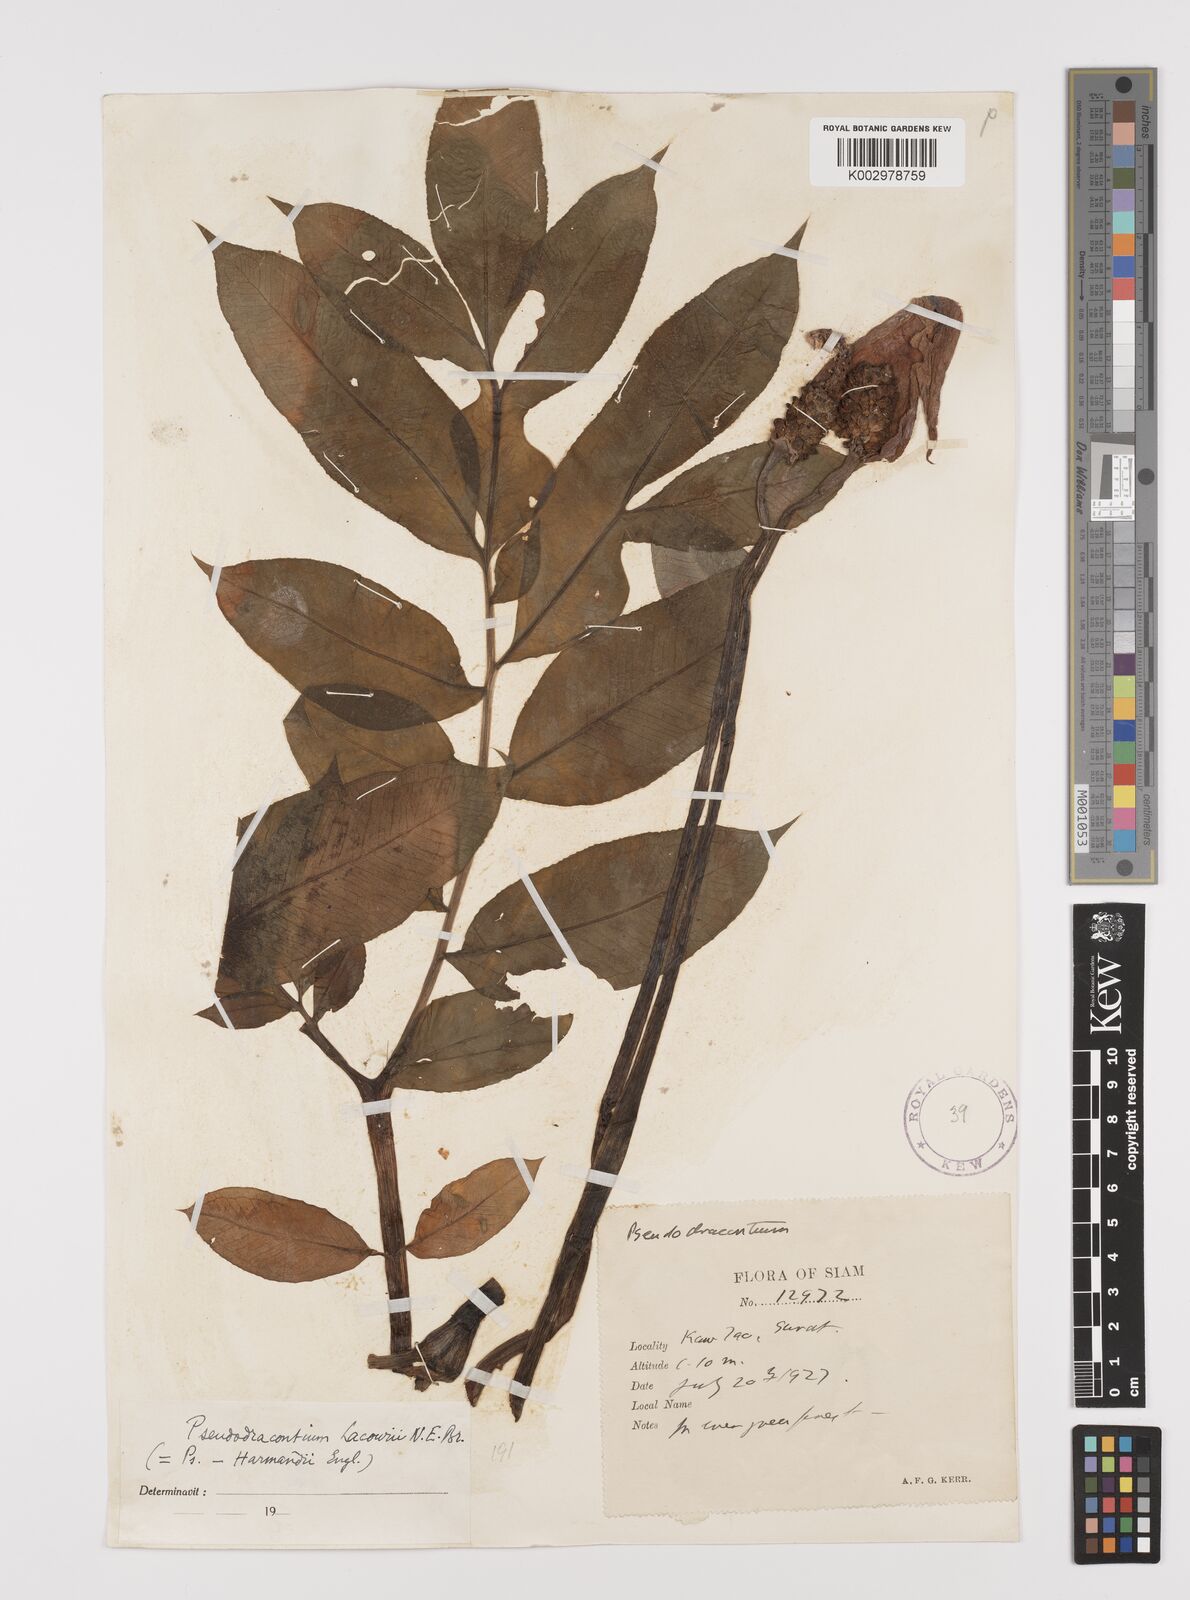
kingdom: Plantae
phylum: Tracheophyta
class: Liliopsida
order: Alismatales
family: Araceae
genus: Amorphophallus
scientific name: Amorphophallus
